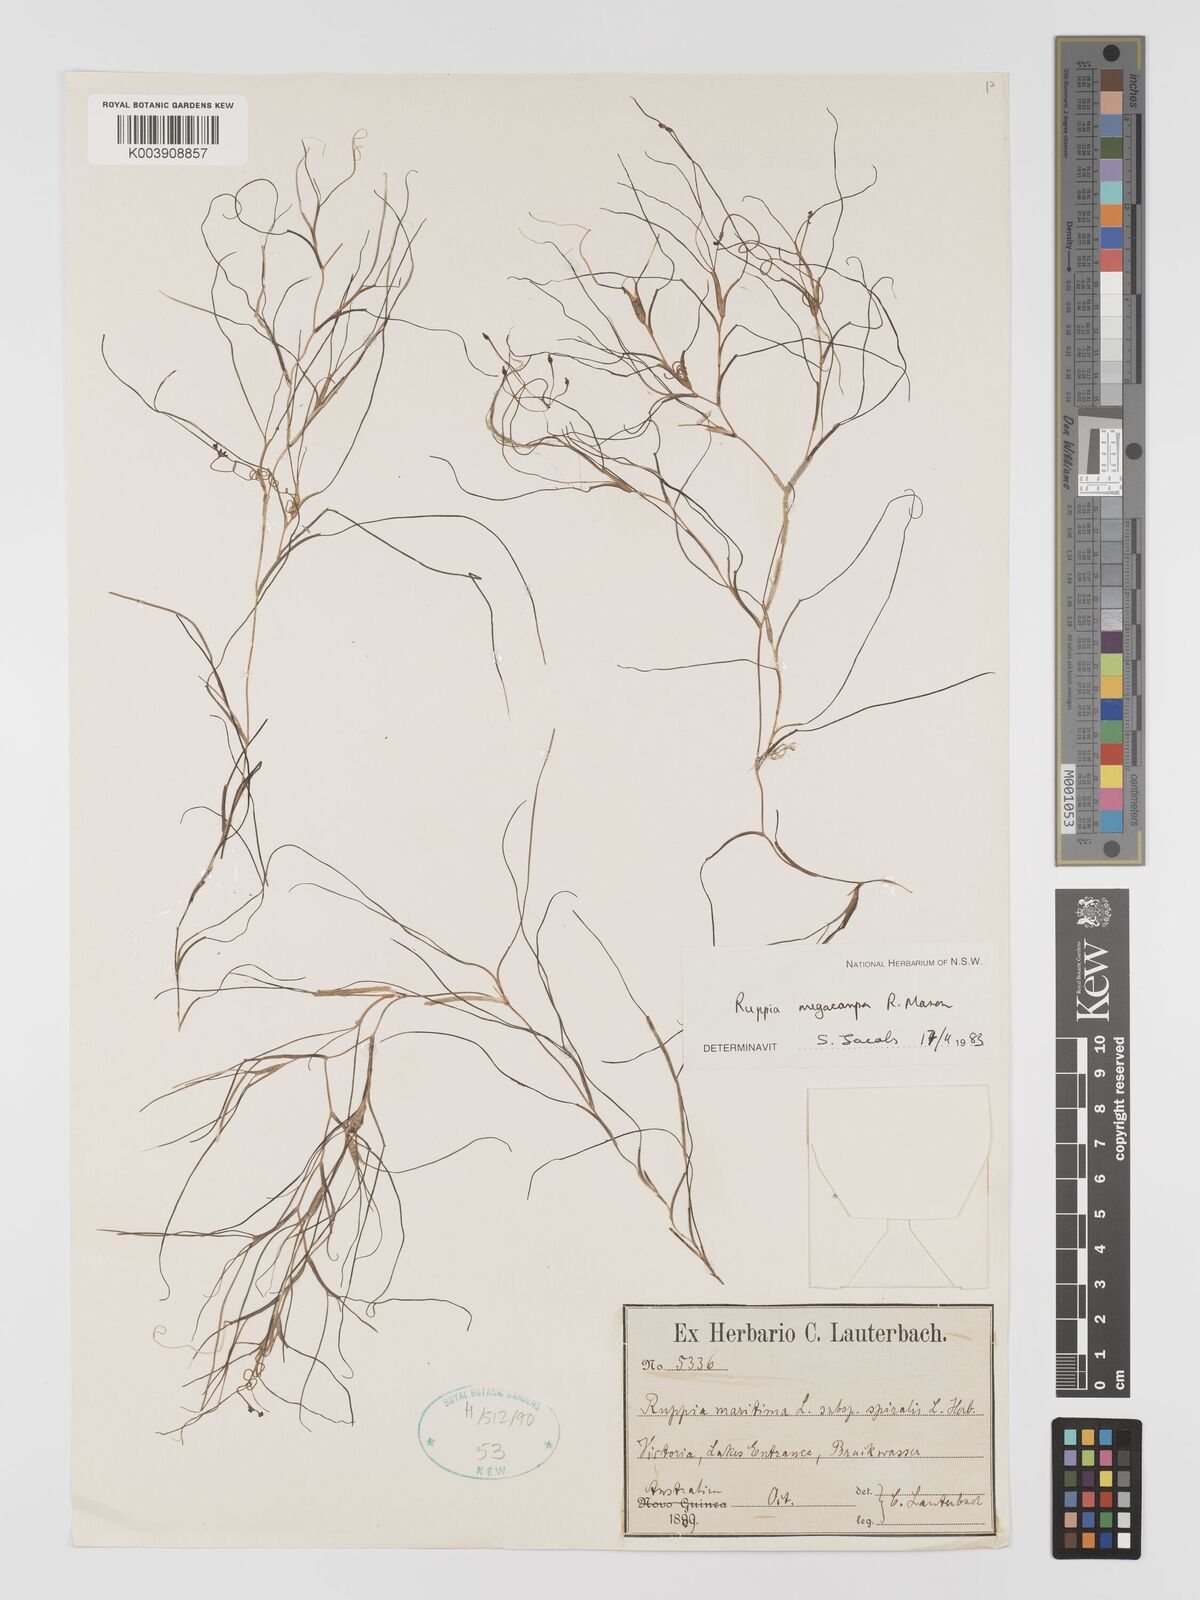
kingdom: Plantae
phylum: Tracheophyta
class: Liliopsida
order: Alismatales
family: Ruppiaceae
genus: Ruppia
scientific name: Ruppia megacarpa
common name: Large-fruit seatassel
